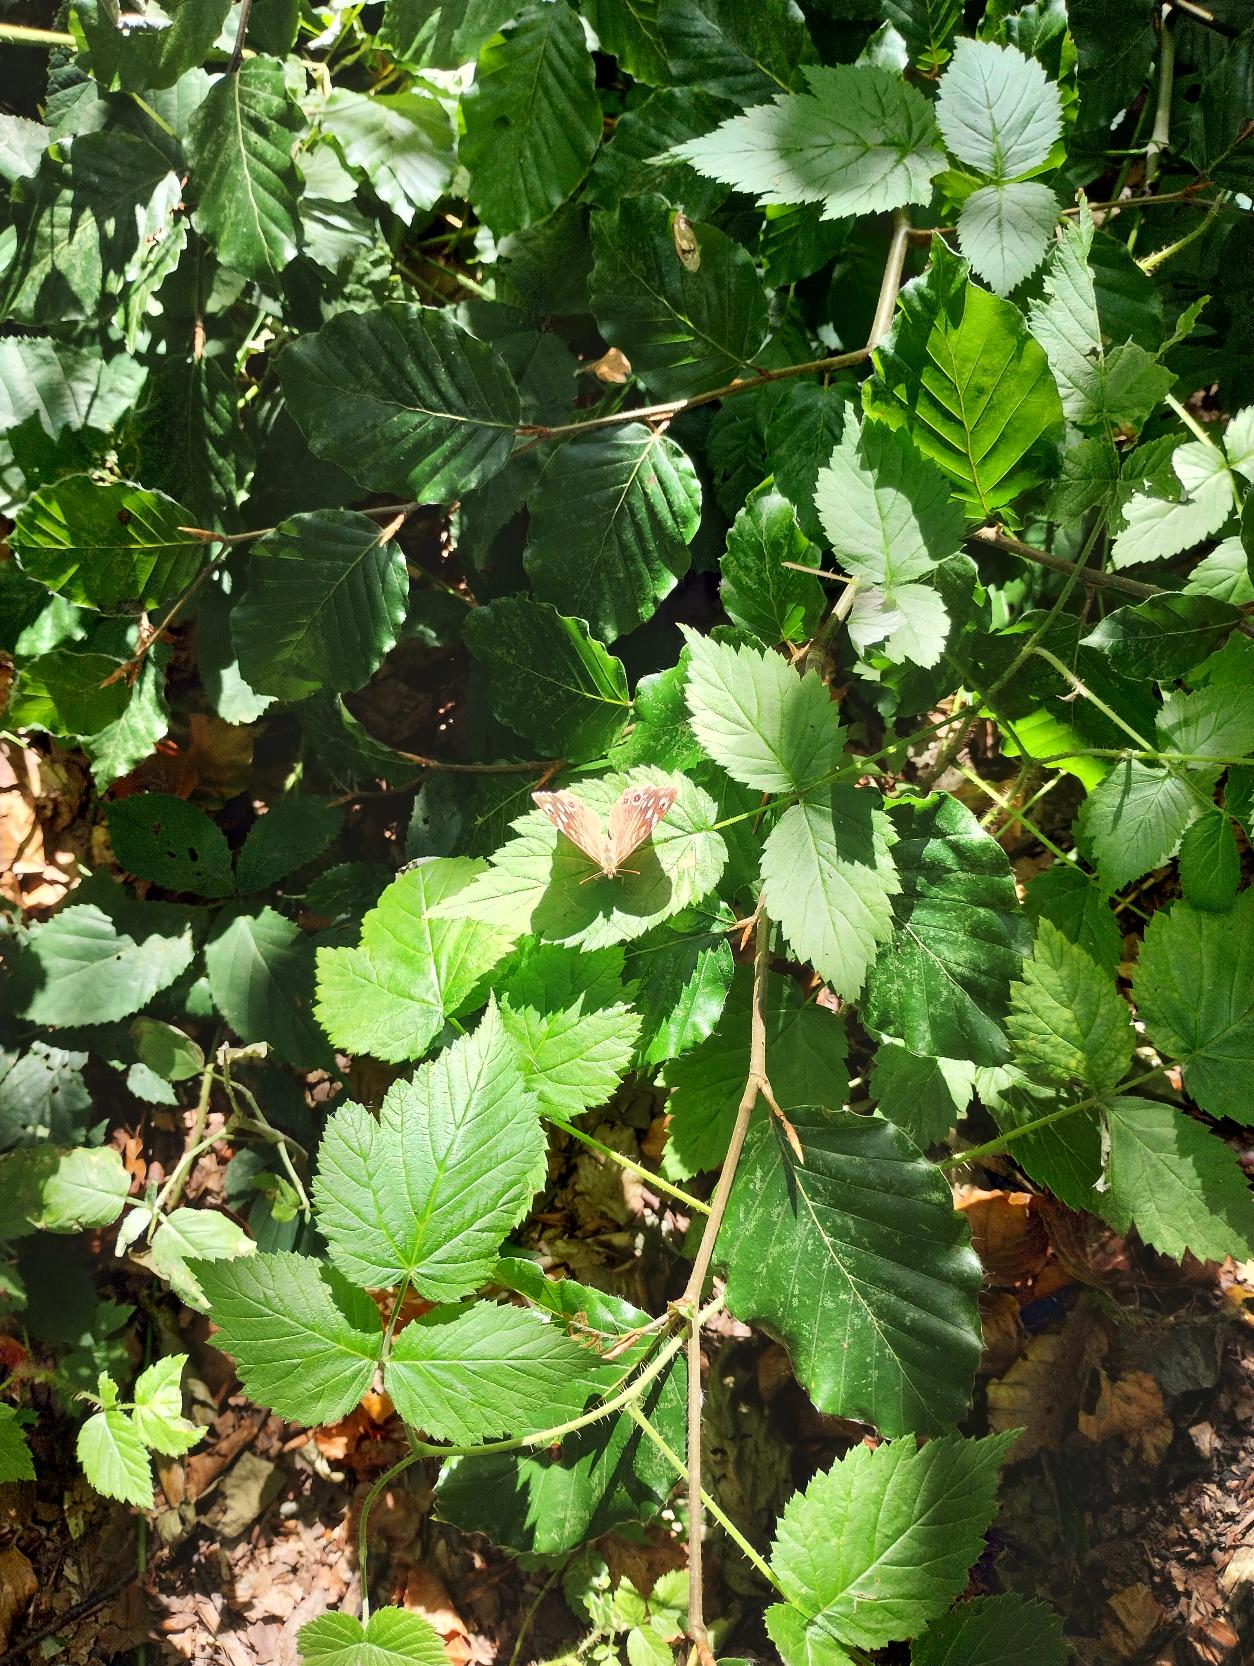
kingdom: Animalia
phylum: Arthropoda
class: Insecta
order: Lepidoptera
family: Nymphalidae
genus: Pararge
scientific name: Pararge aegeria
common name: Skovrandøje
